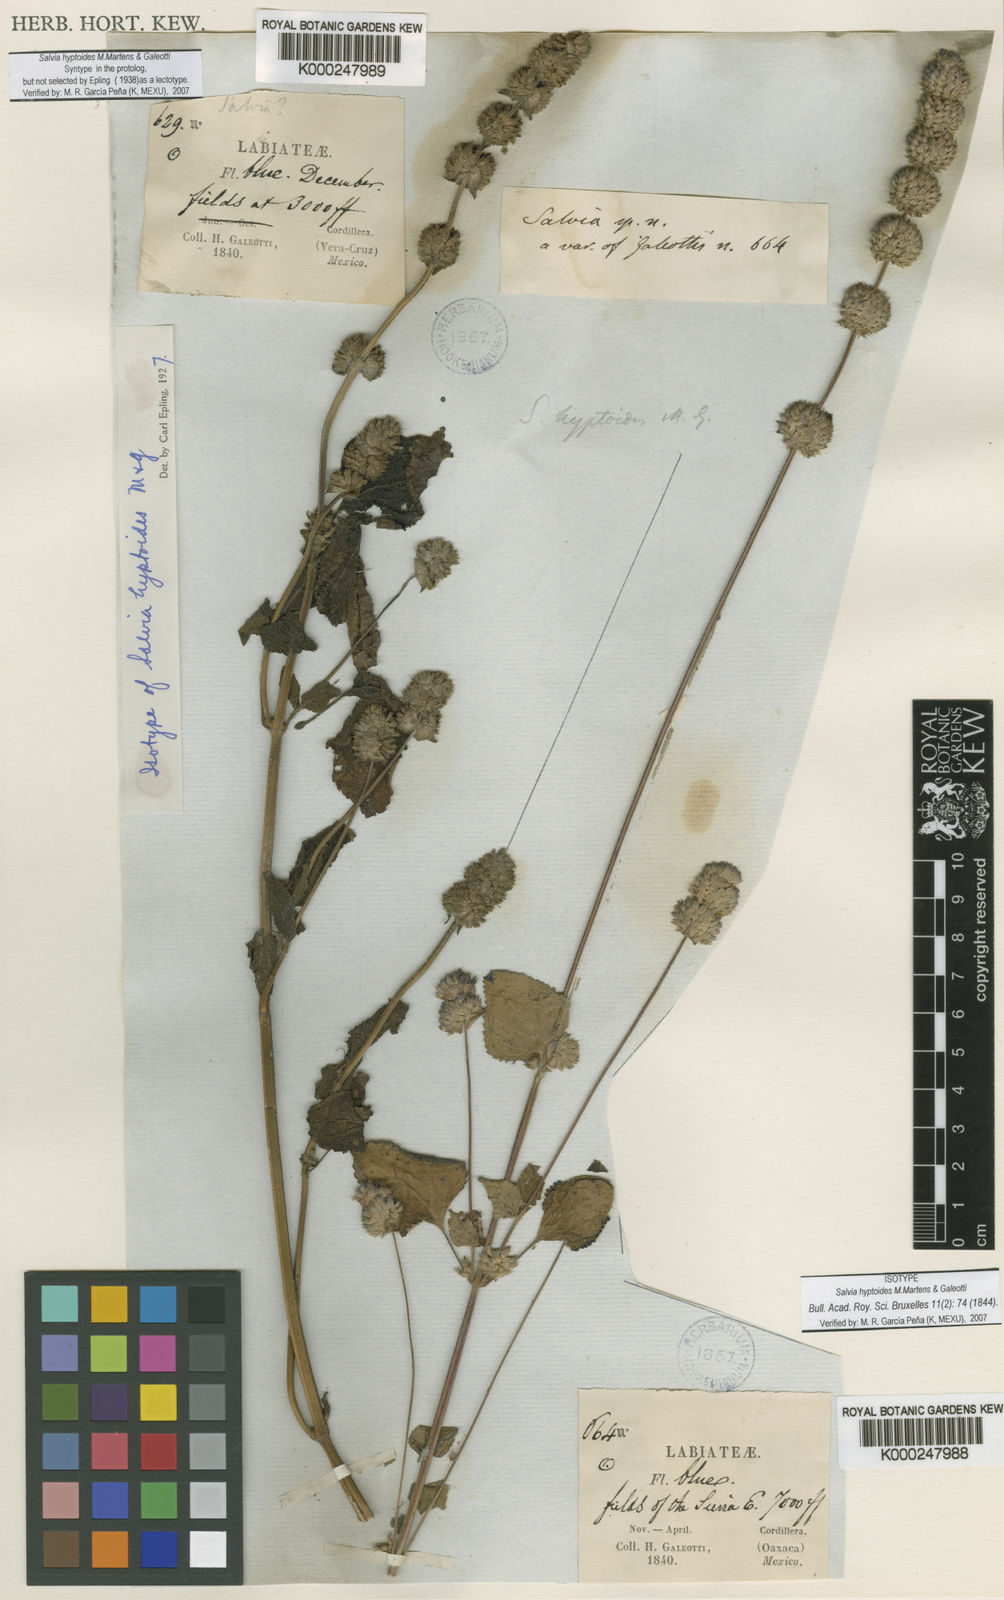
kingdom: Plantae
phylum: Tracheophyta
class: Magnoliopsida
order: Lamiales
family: Lamiaceae
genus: Salvia
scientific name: Salvia lasiocephala
